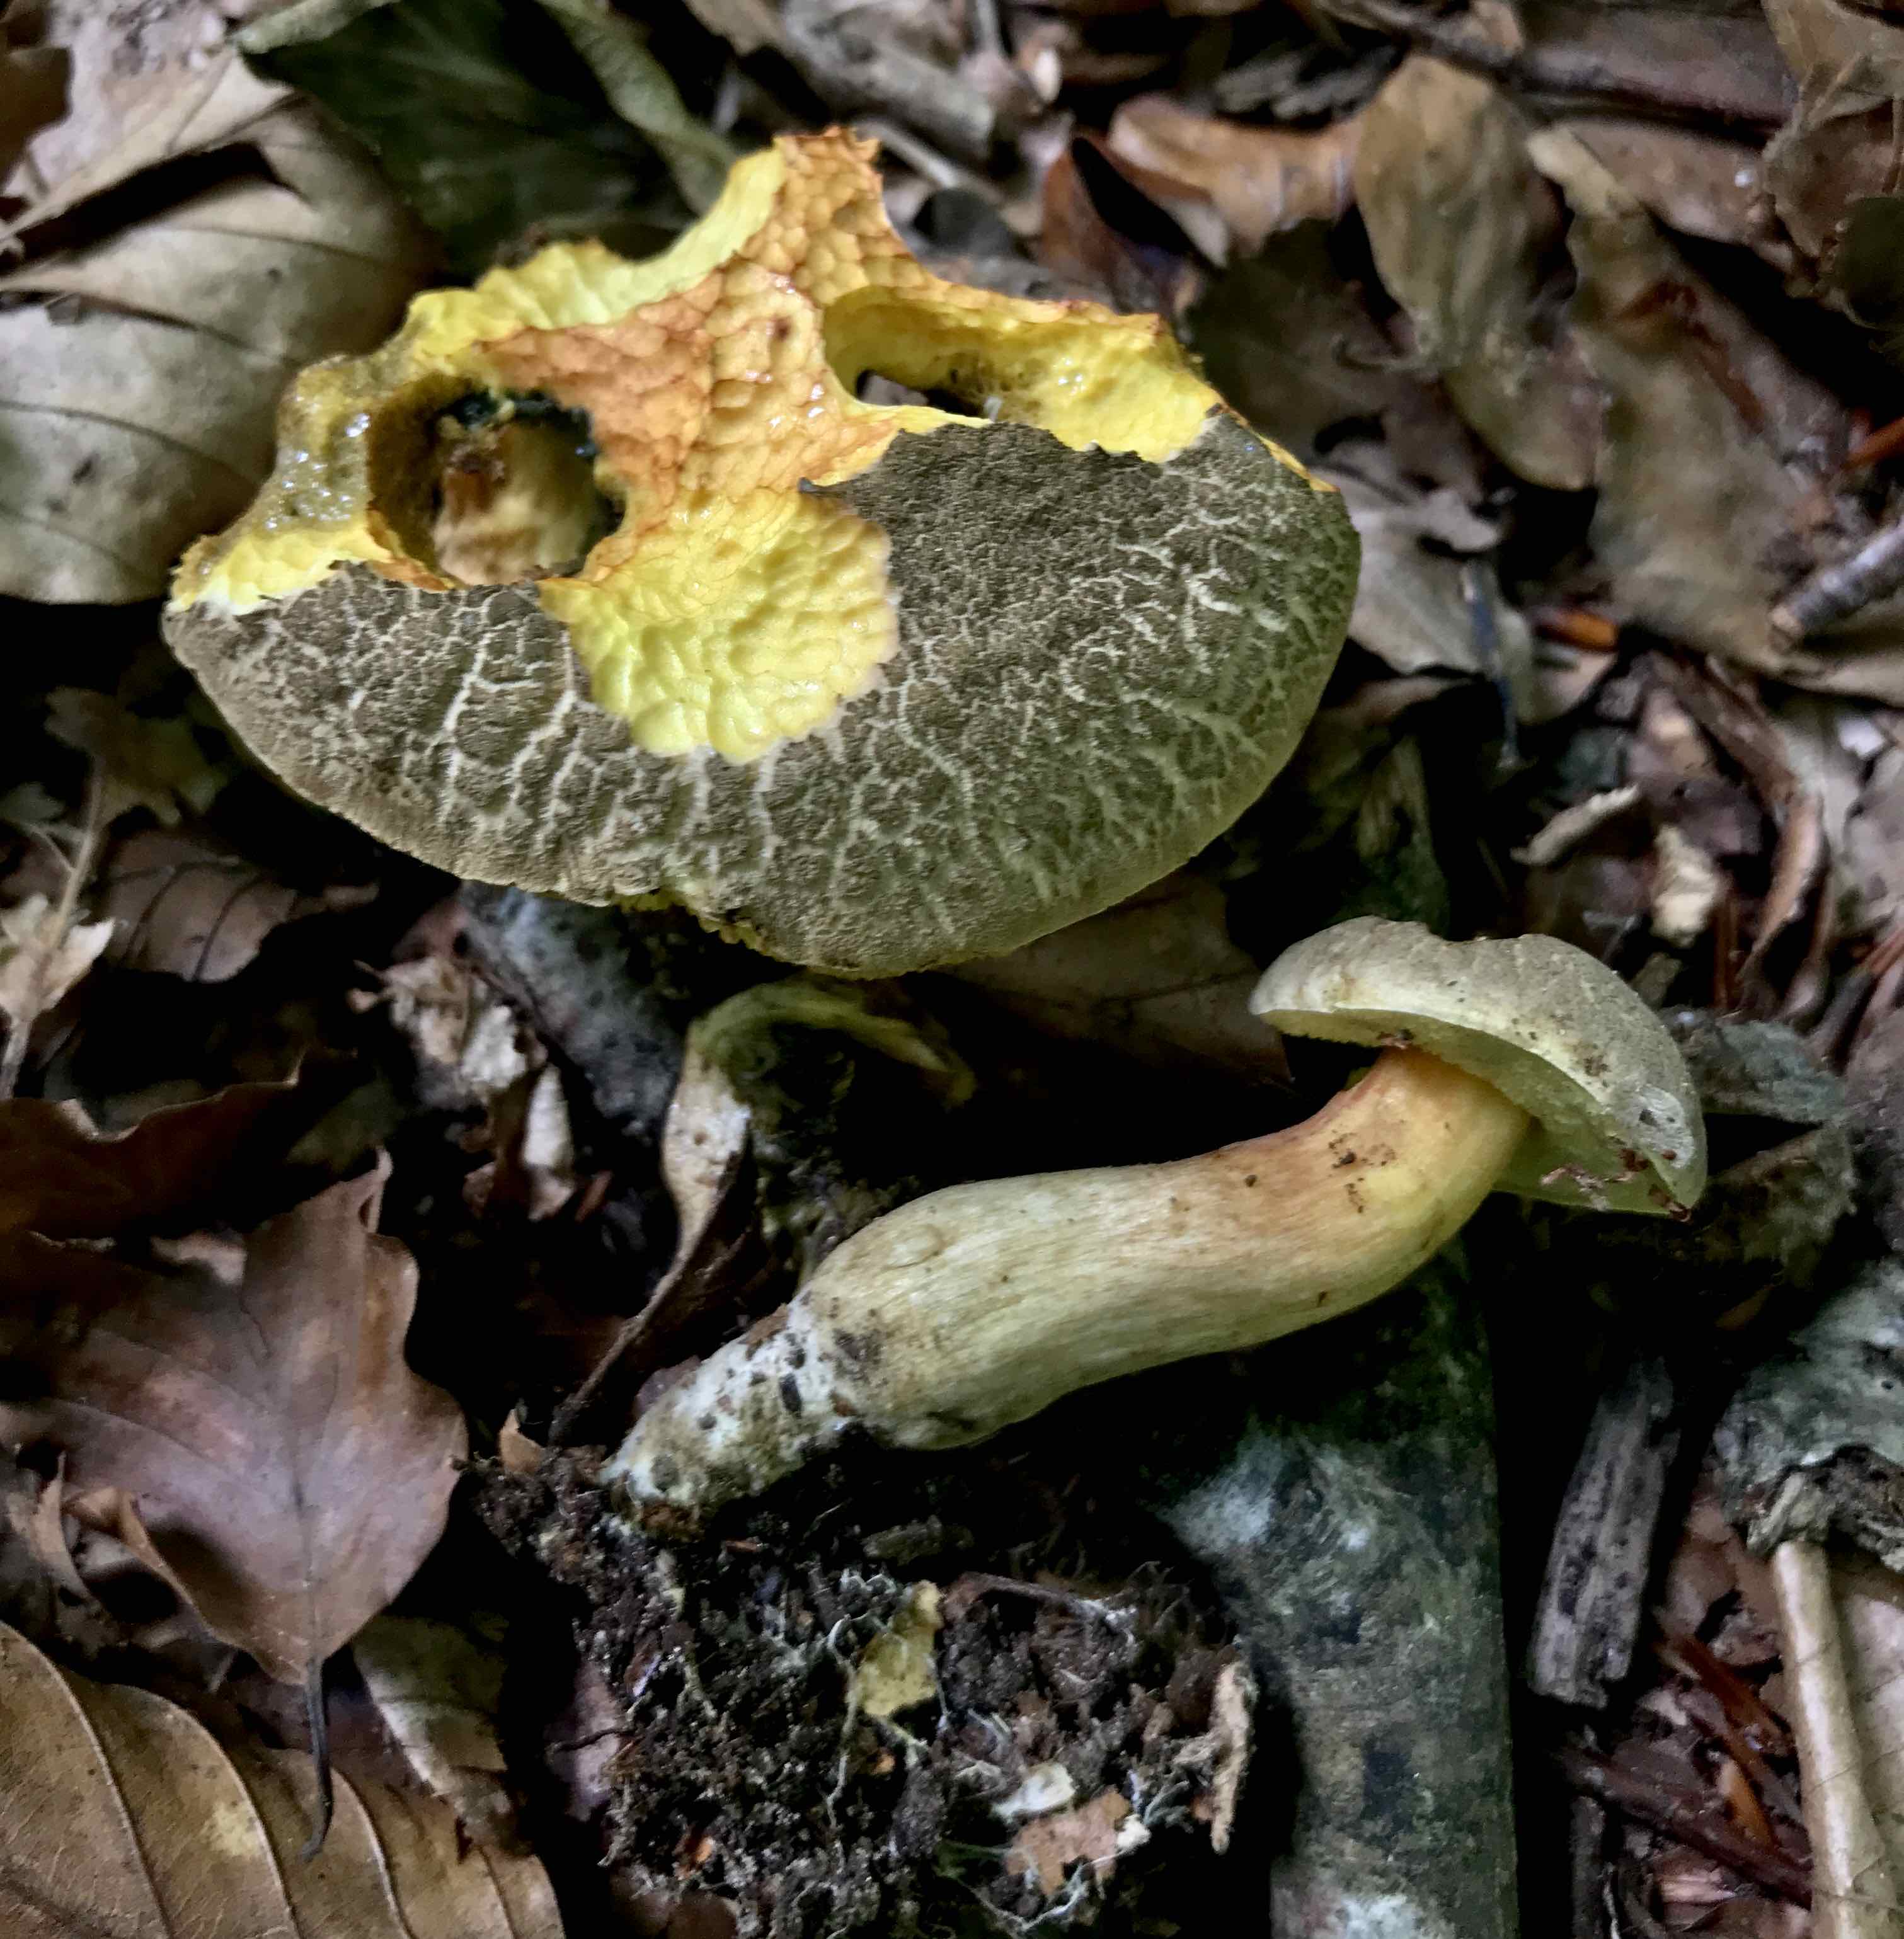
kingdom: Fungi
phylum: Basidiomycota
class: Agaricomycetes
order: Boletales
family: Boletaceae
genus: Xerocomellus
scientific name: Xerocomellus porosporus
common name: hvidsprukken rørhat
